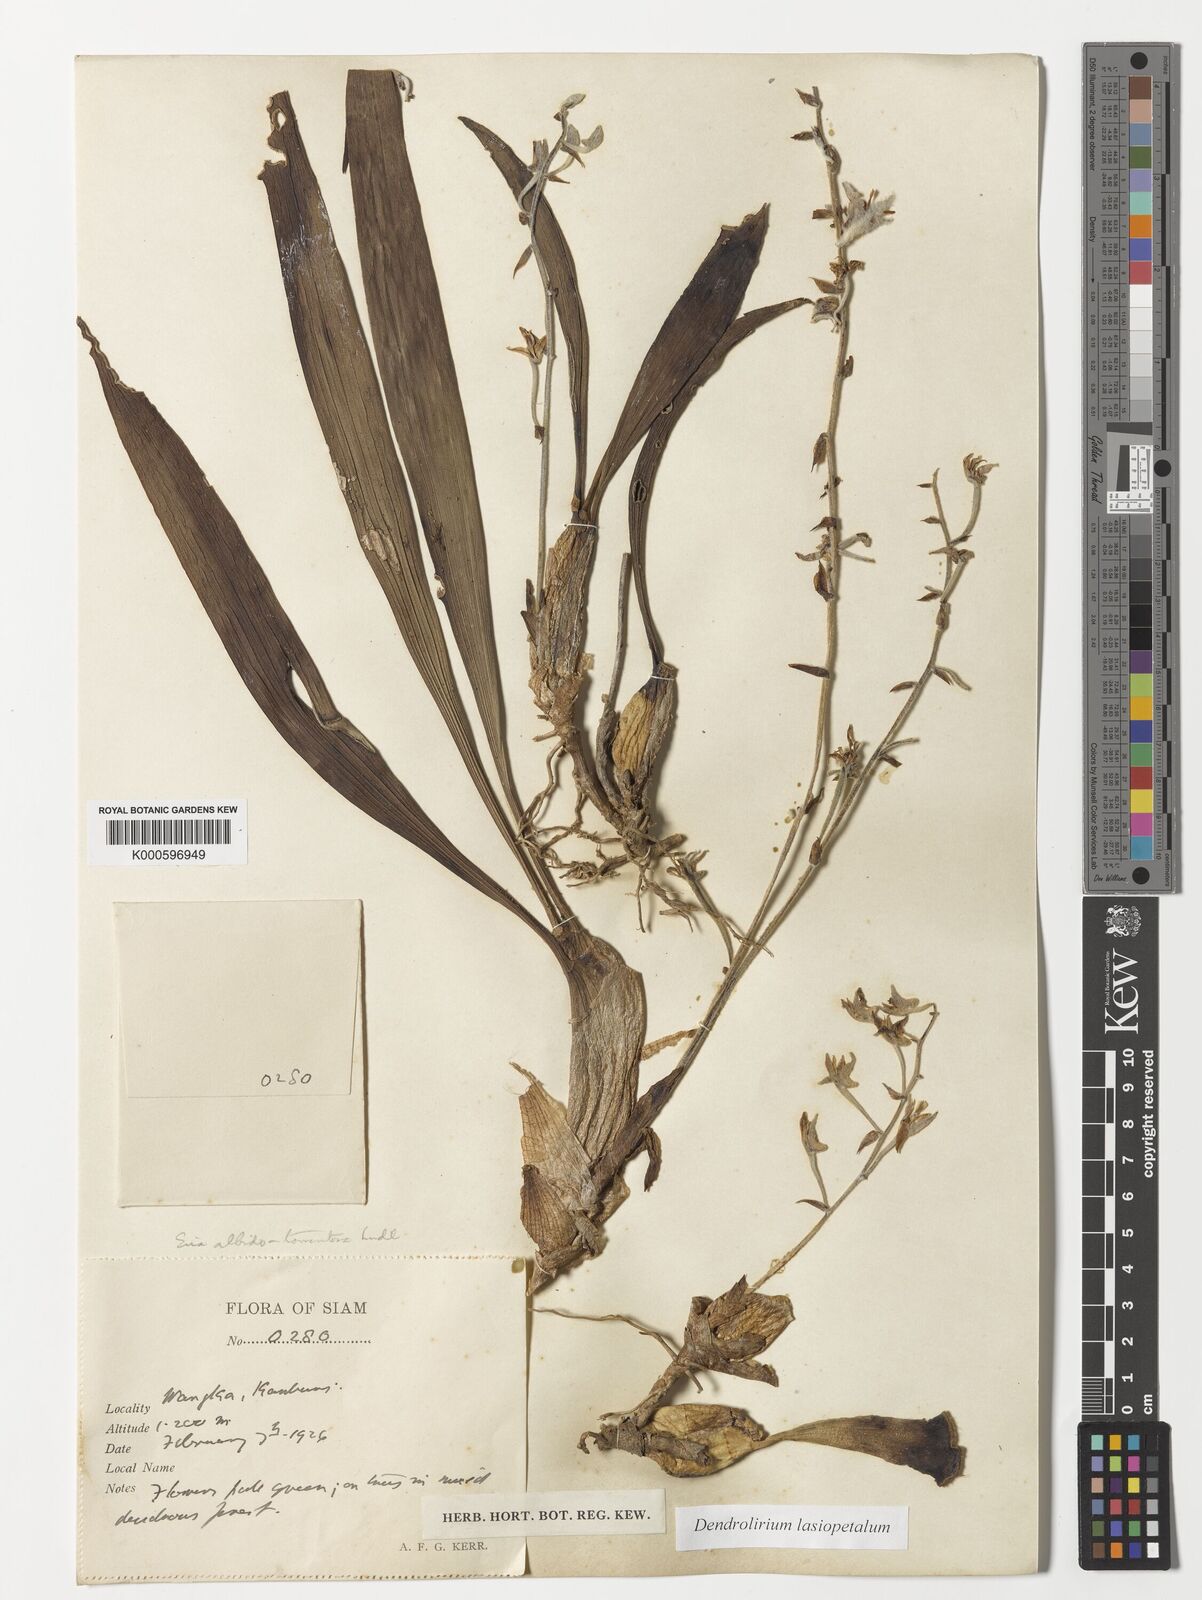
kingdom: Plantae
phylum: Tracheophyta
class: Liliopsida
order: Asparagales
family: Orchidaceae
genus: Dendrolirium
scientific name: Dendrolirium lasiopetalum
